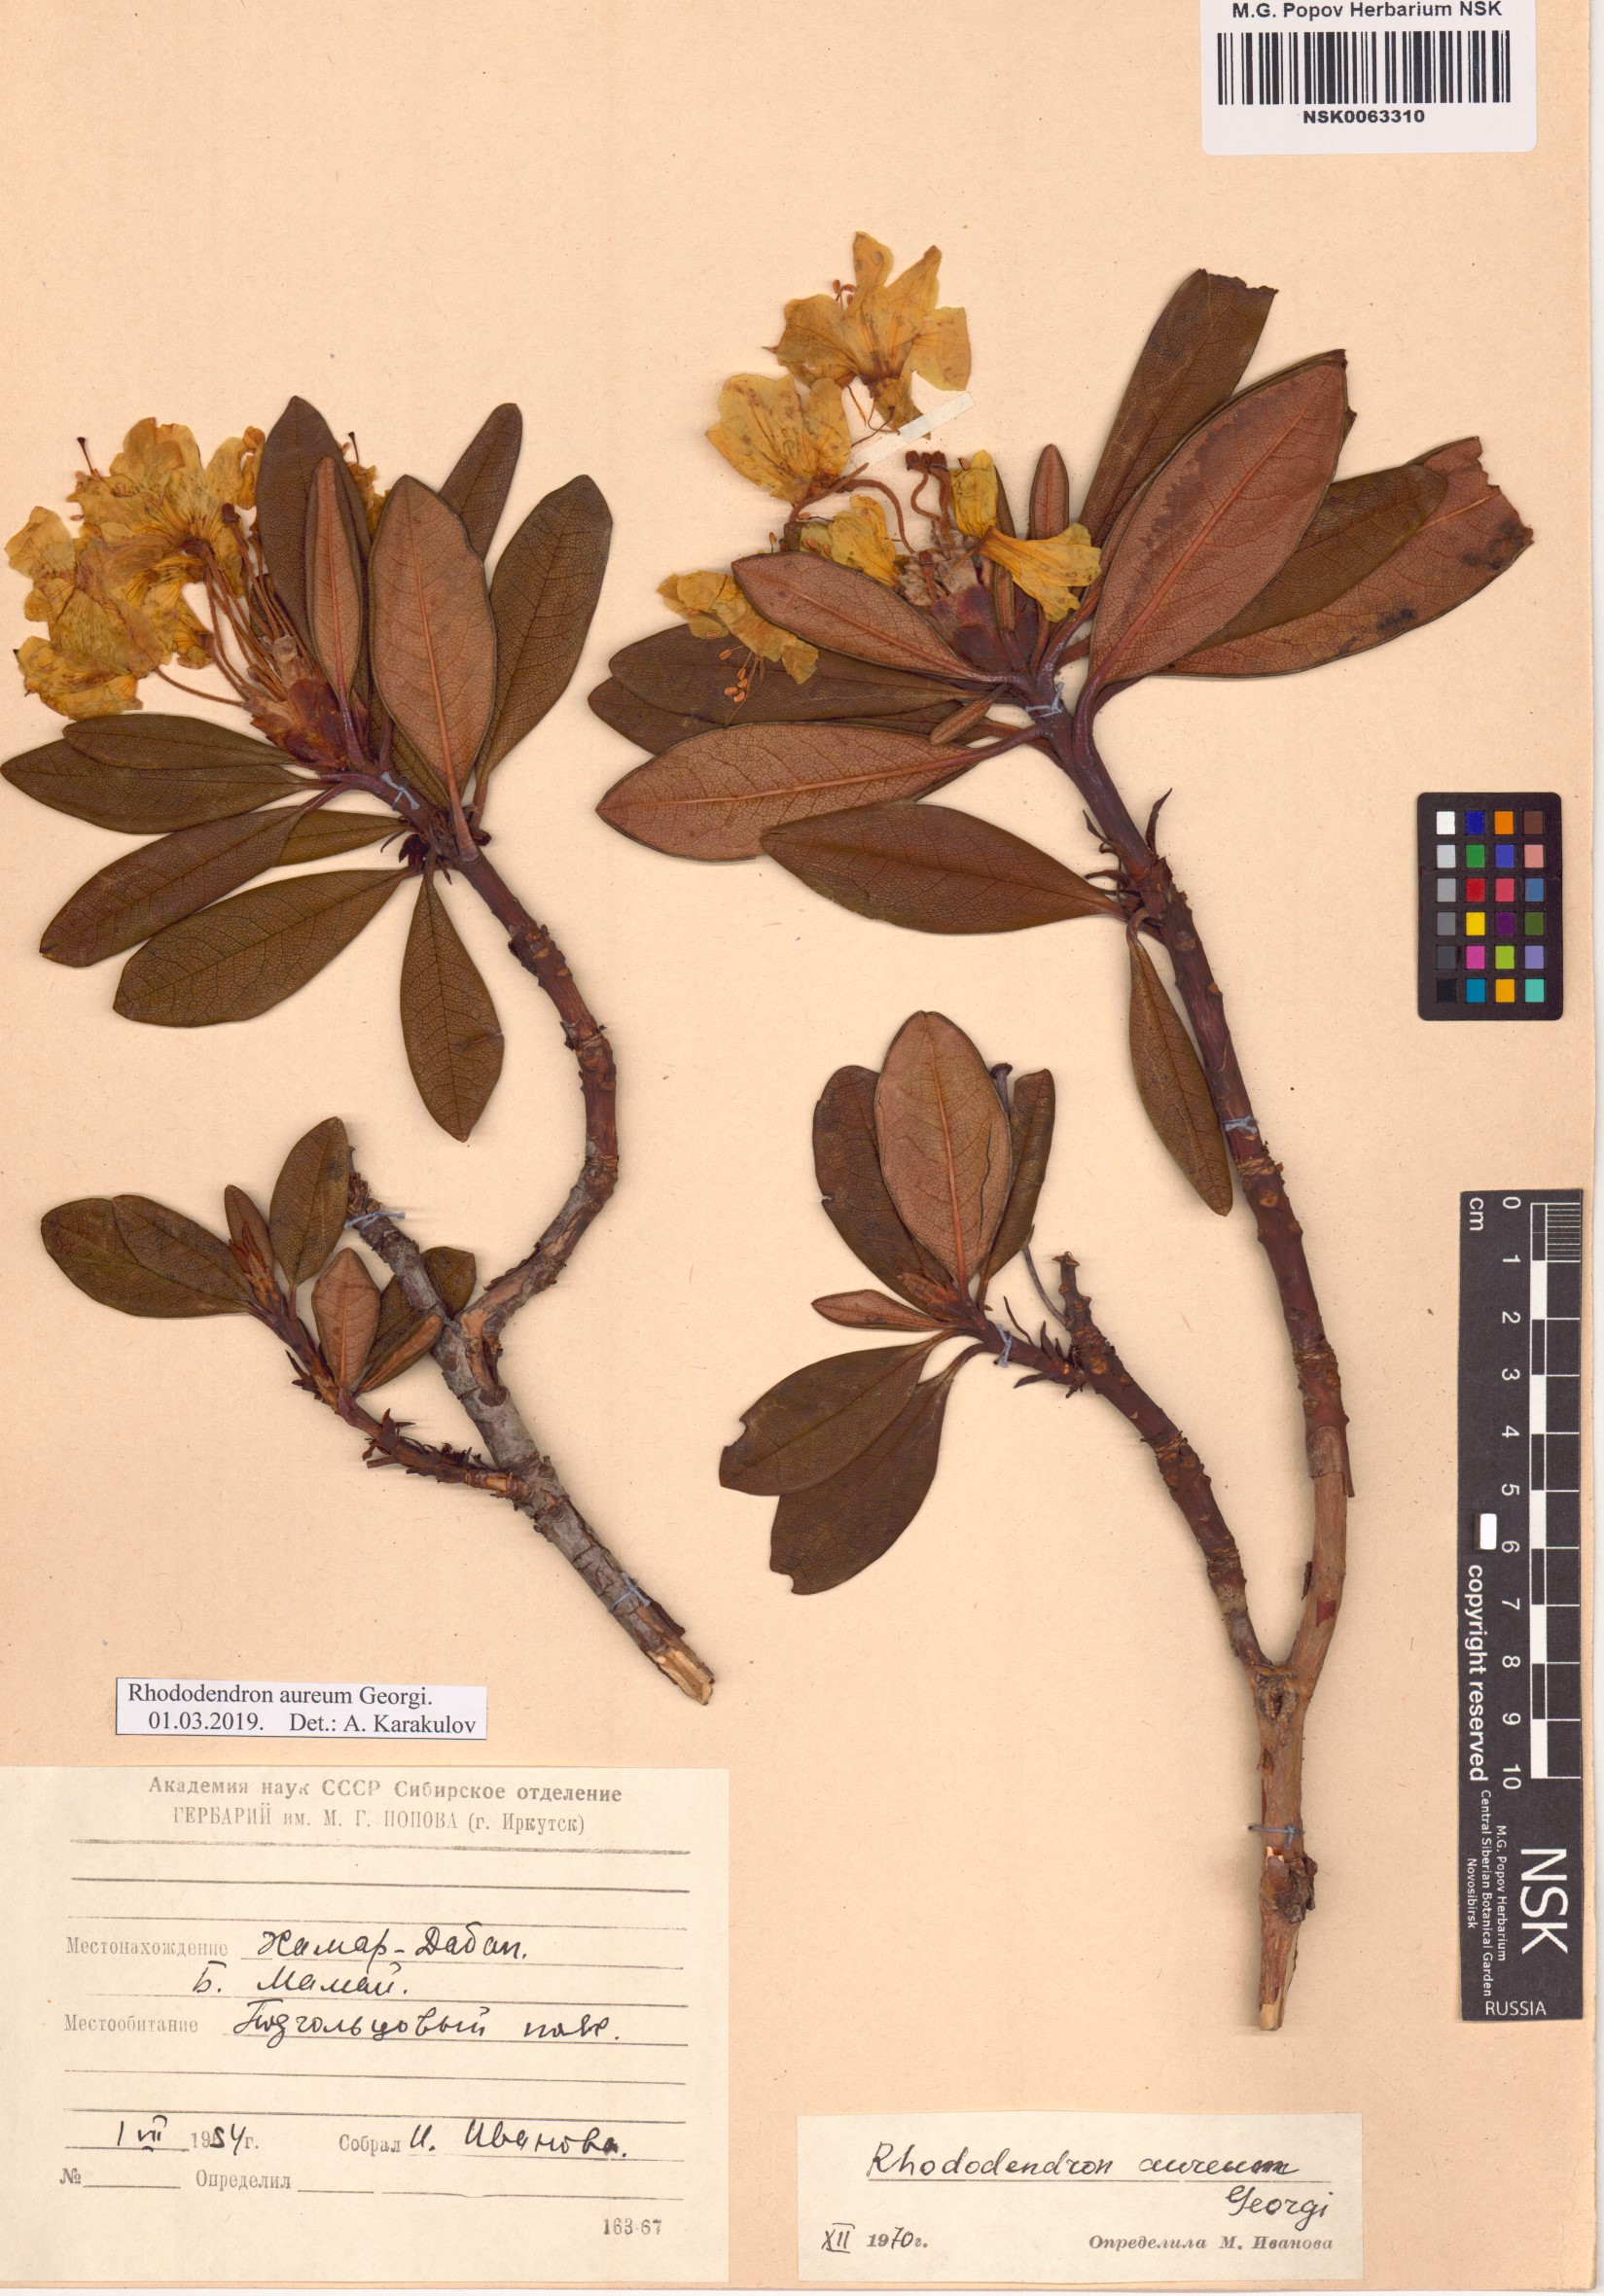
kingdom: Plantae
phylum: Tracheophyta
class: Magnoliopsida
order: Ericales
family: Ericaceae
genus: Rhododendron
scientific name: Rhododendron aureum
